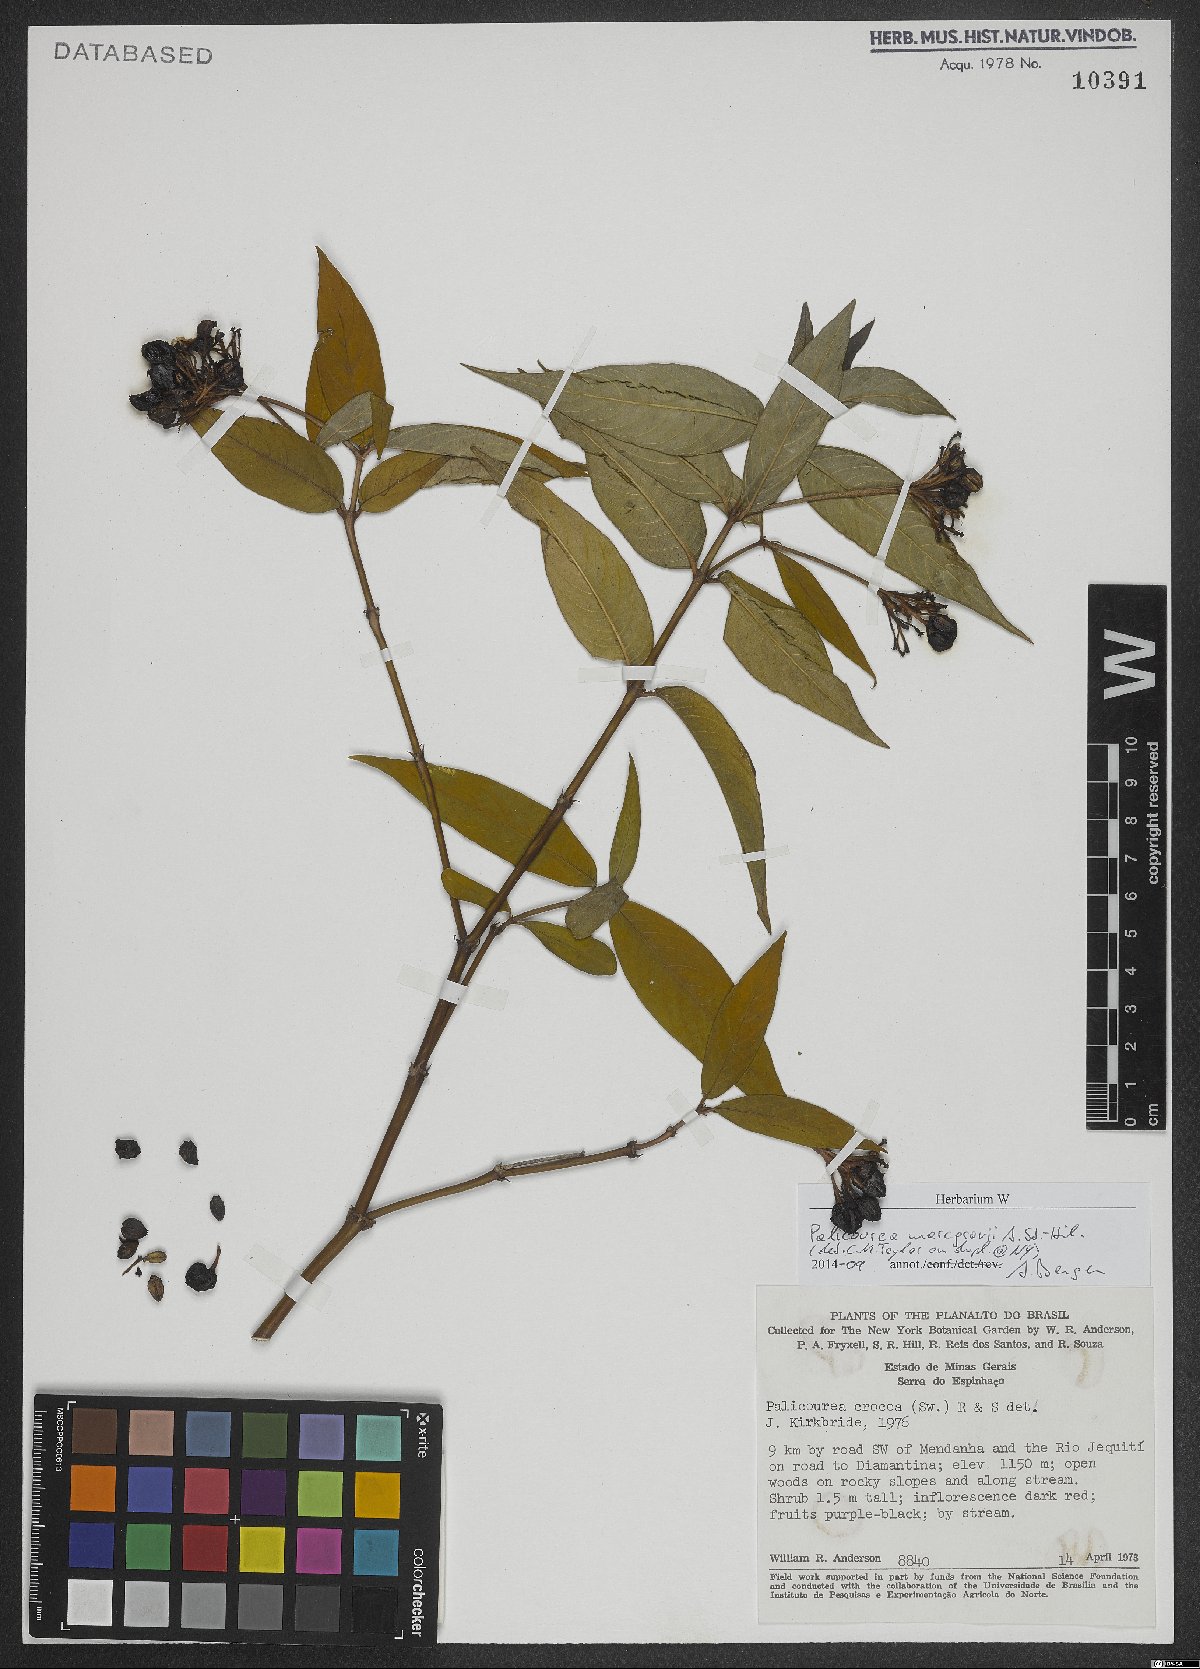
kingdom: Plantae
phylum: Tracheophyta
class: Magnoliopsida
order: Gentianales
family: Rubiaceae
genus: Palicourea
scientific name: Palicourea marcgravii
